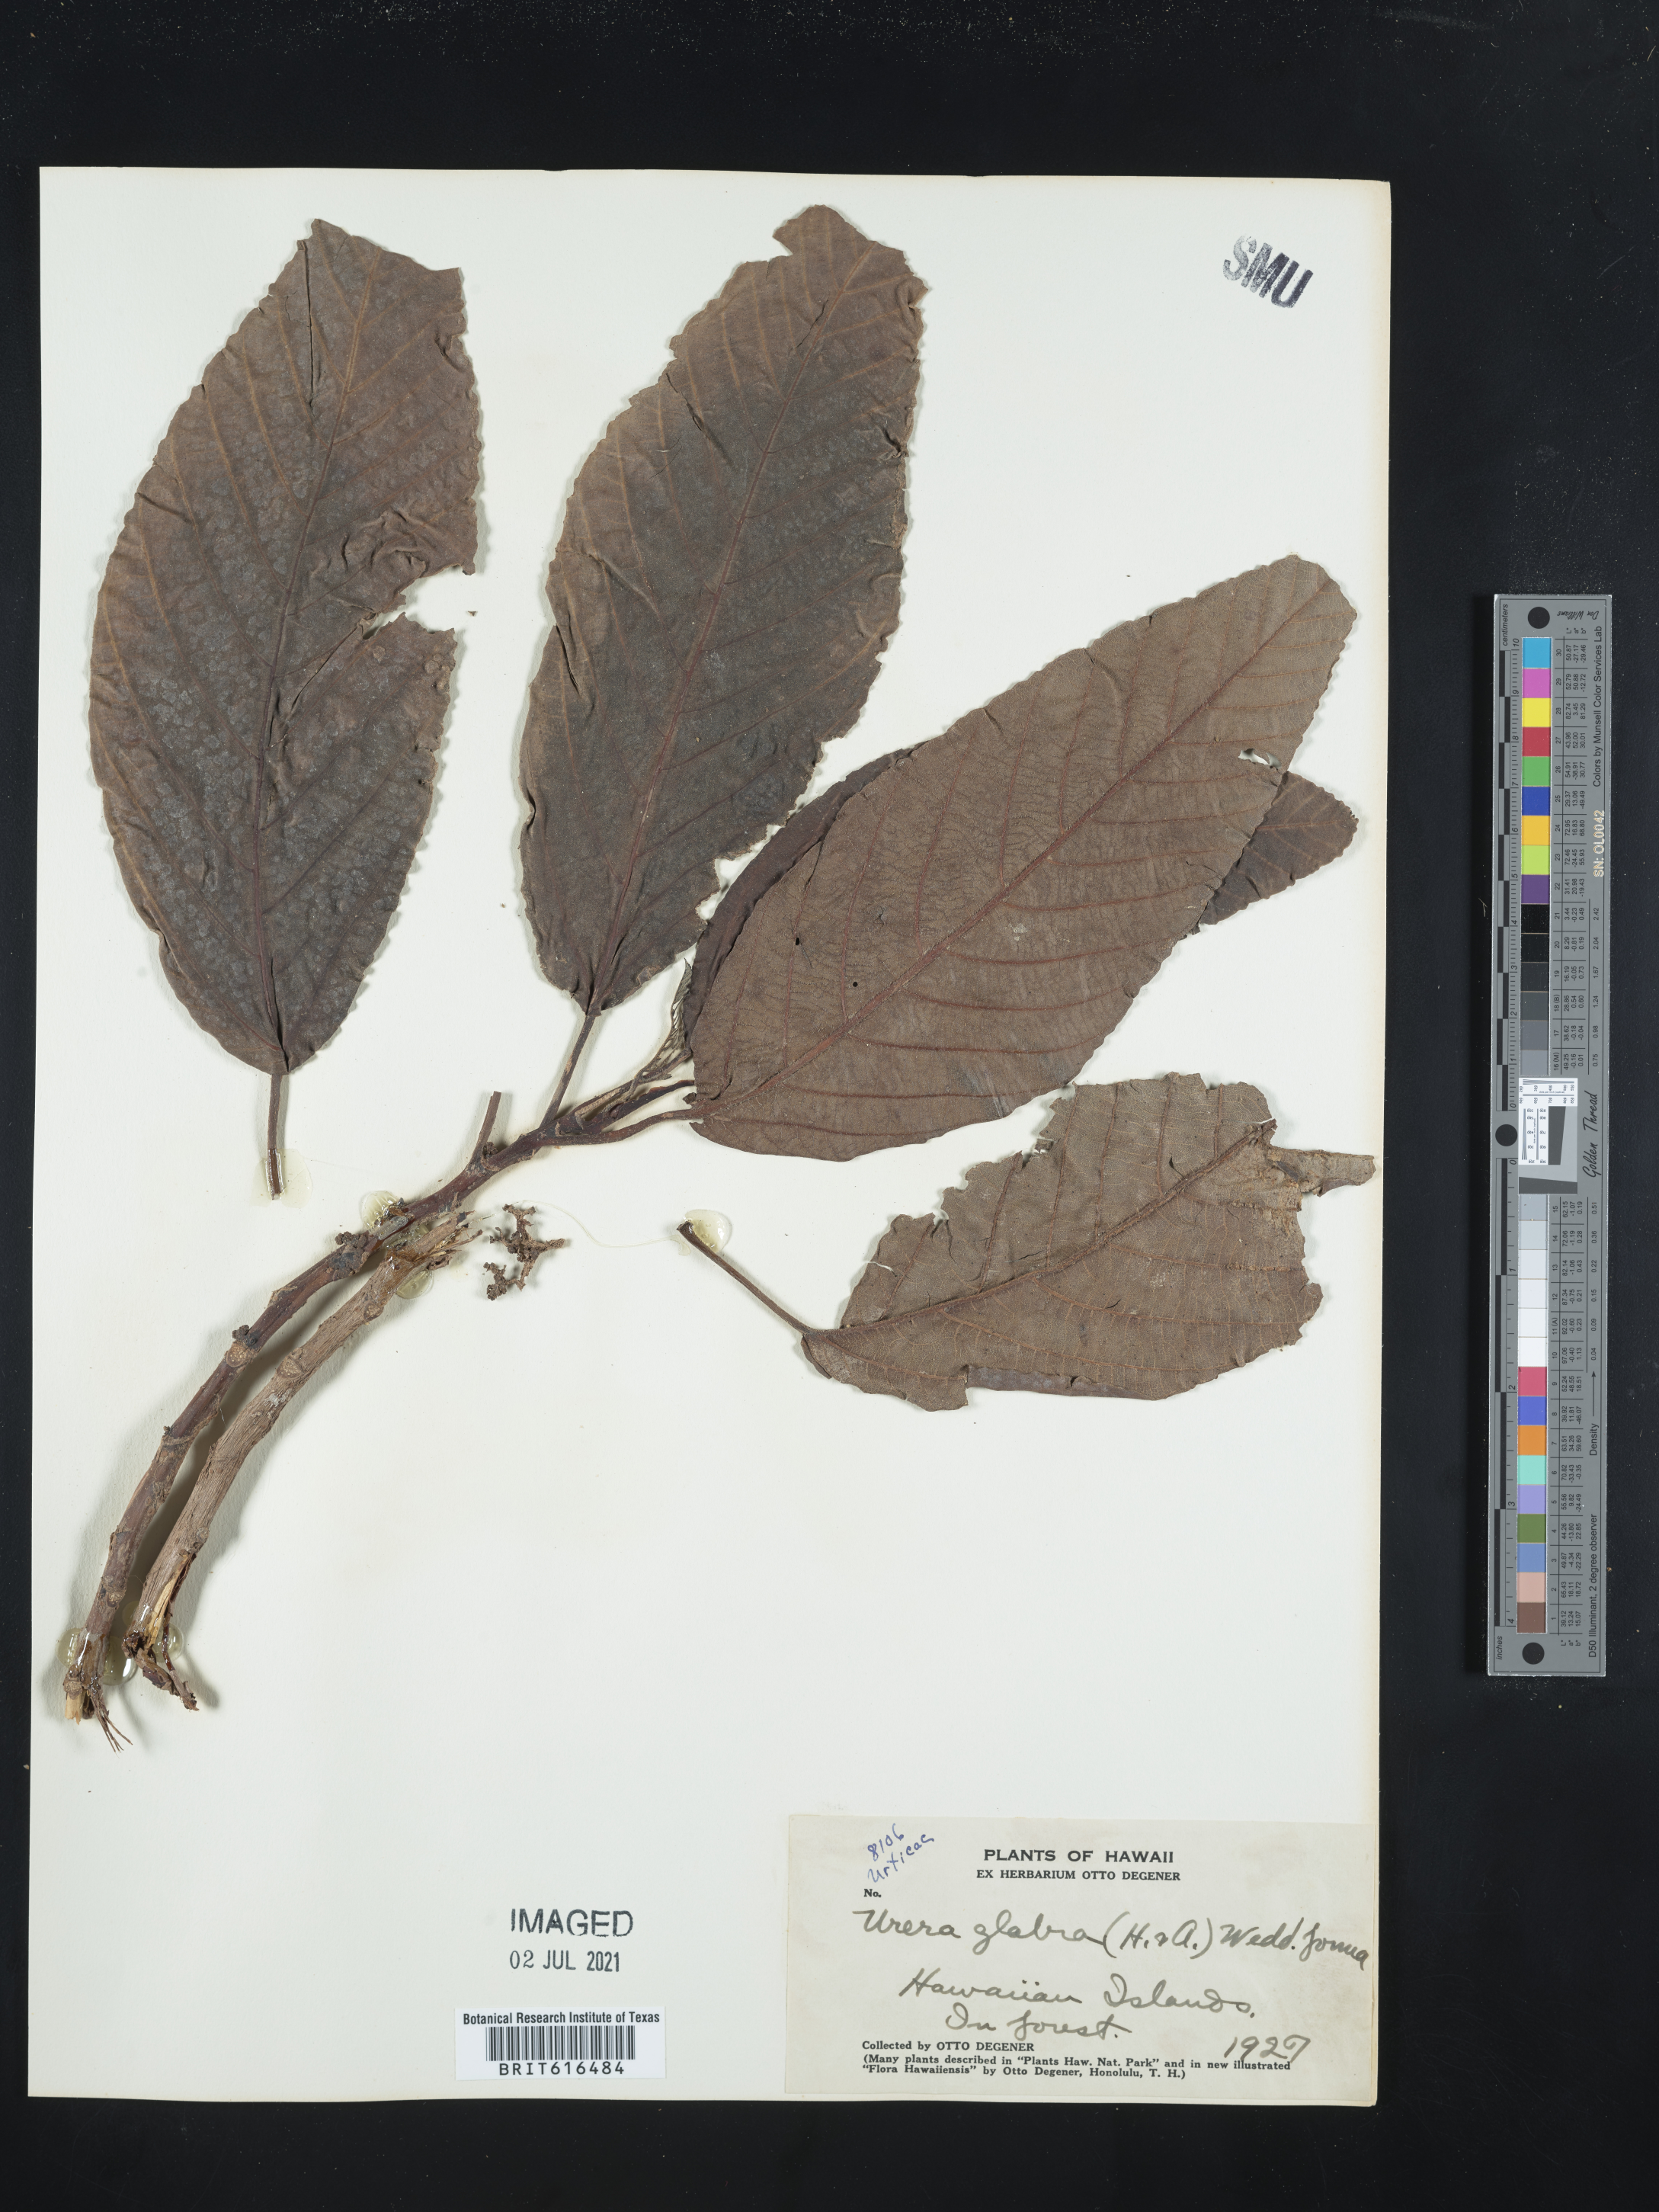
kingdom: Plantae
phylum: Tracheophyta
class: Magnoliopsida
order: Rosales
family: Urticaceae
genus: Touchardia
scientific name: Touchardia oahuensis
